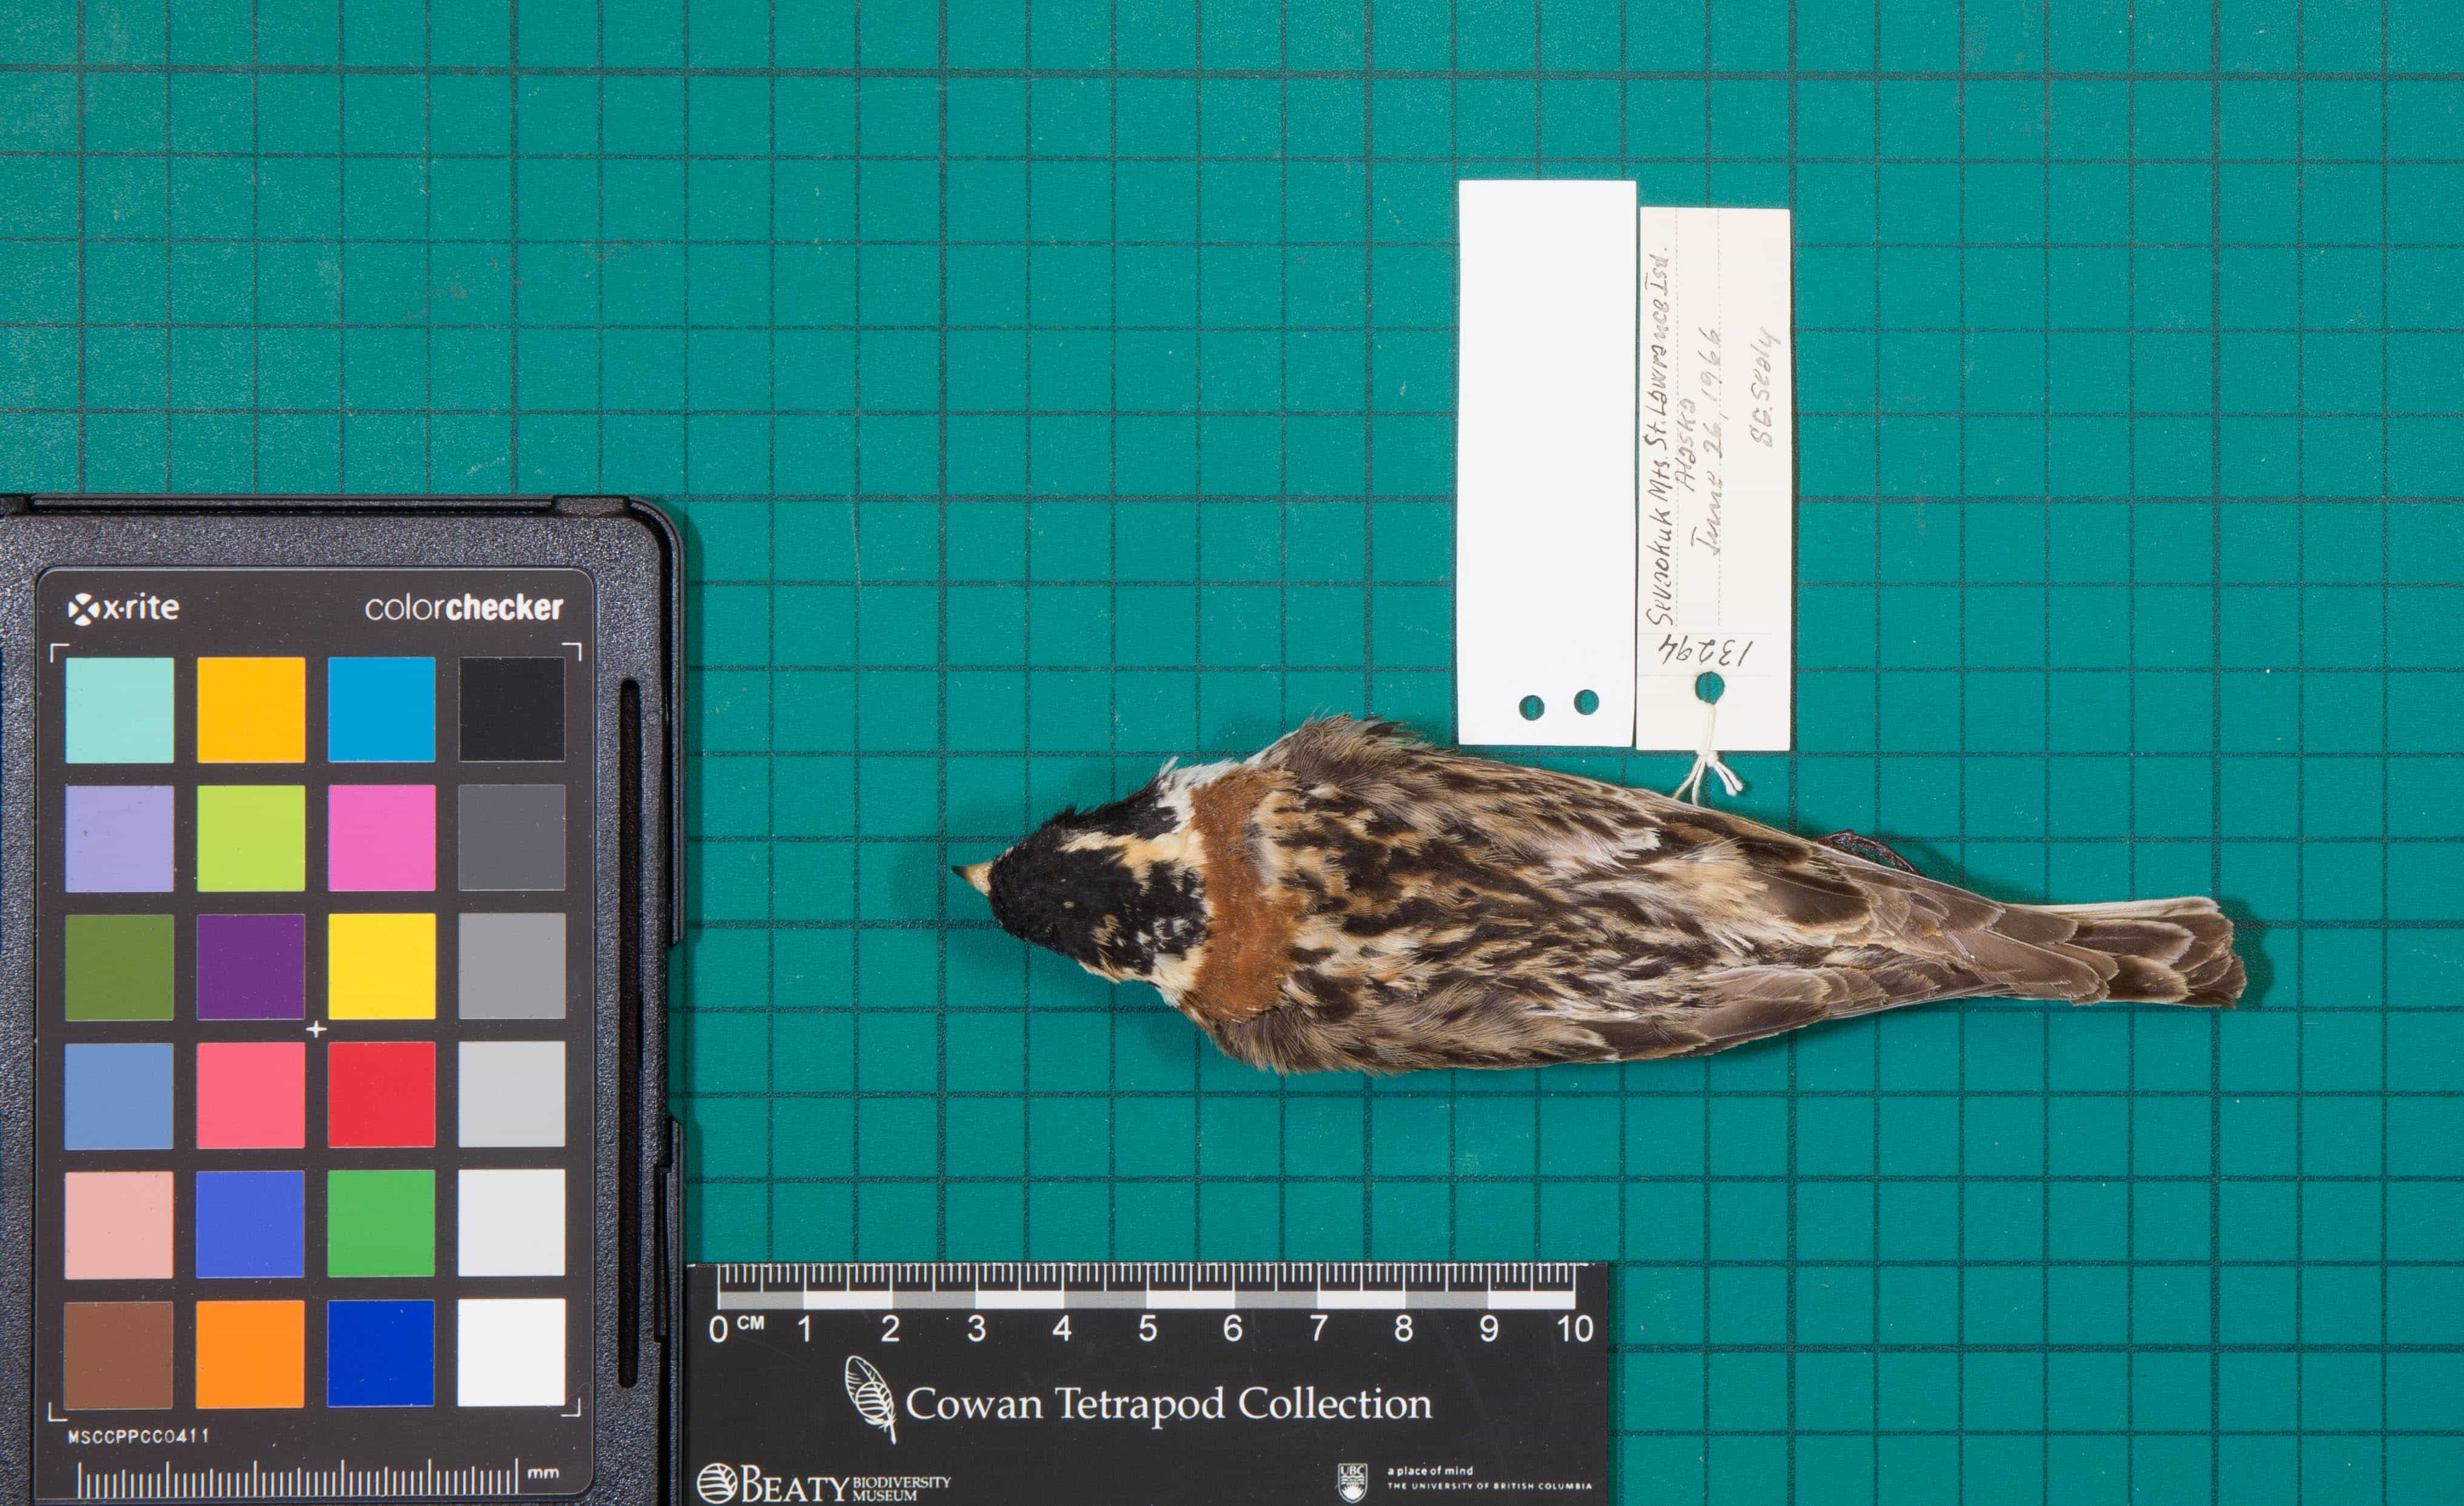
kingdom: Animalia
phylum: Chordata
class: Aves
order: Passeriformes
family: Calcariidae
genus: Calcarius
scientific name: Calcarius lapponicus
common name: Lapland Longspur
